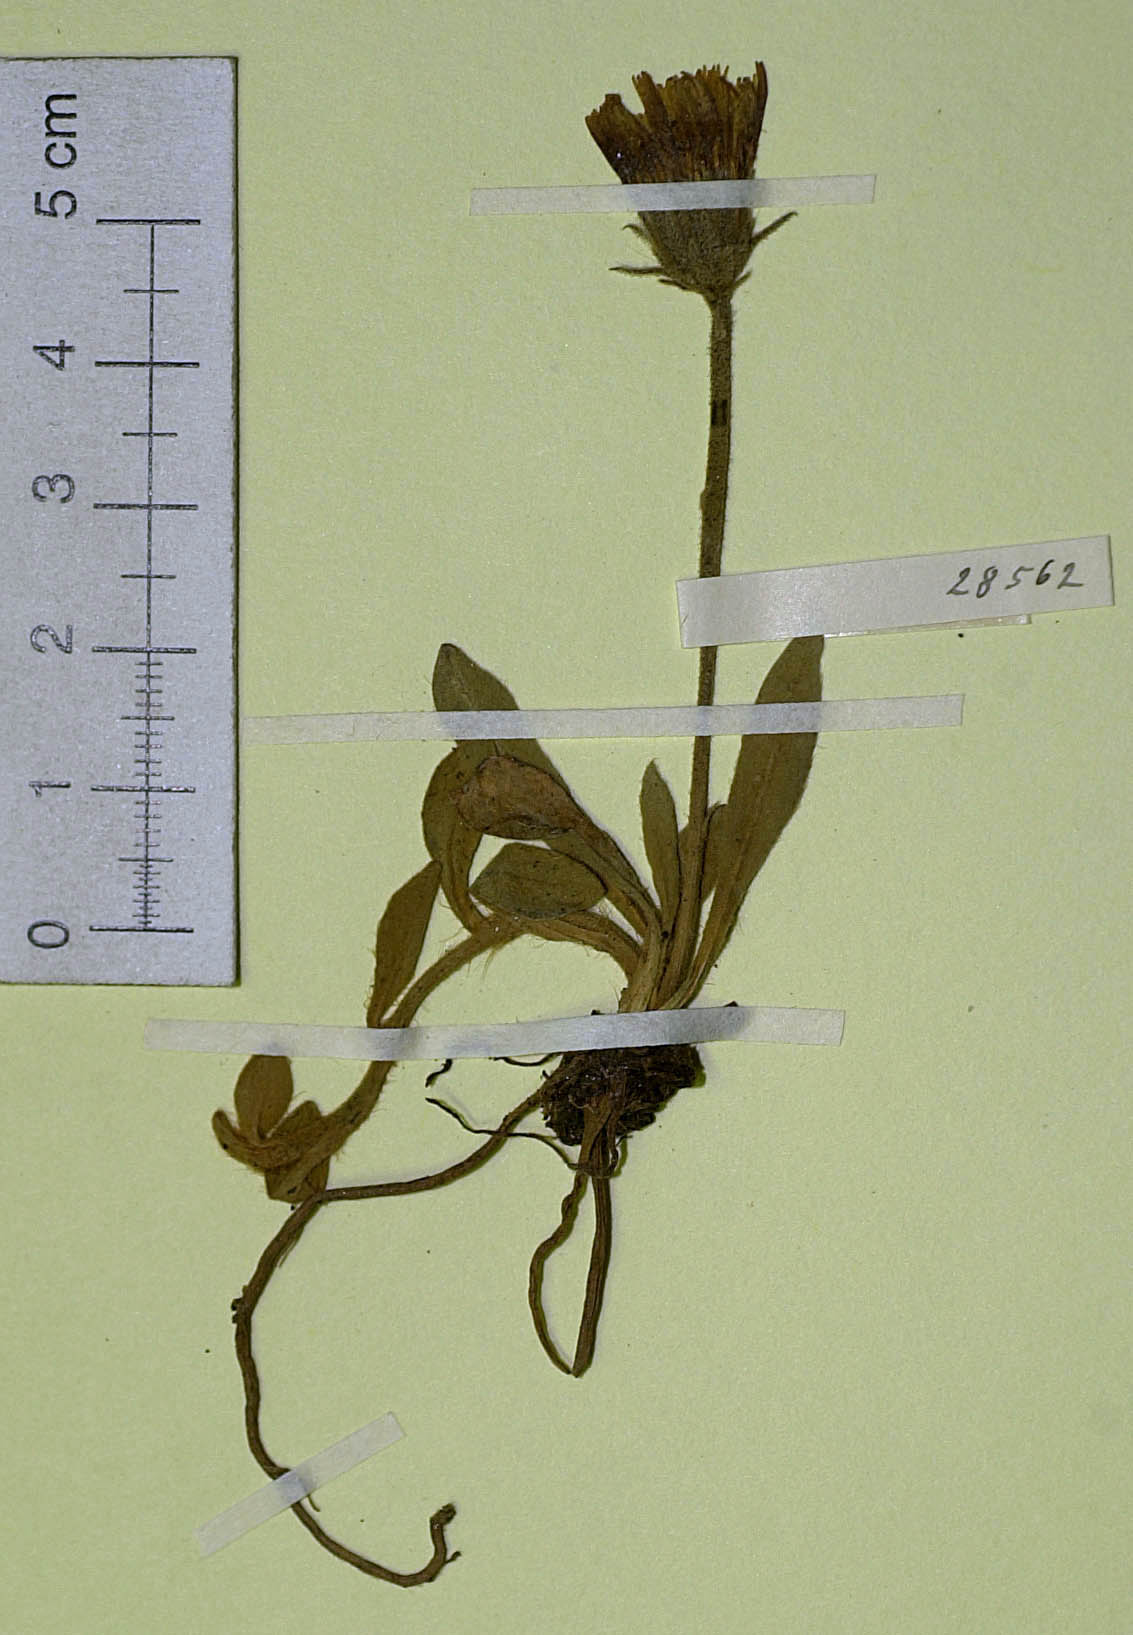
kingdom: Plantae
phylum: Tracheophyta
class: Magnoliopsida
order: Asterales
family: Asteraceae
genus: Pilosella
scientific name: Pilosella officinarum
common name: Mouse-ear hawkweed
